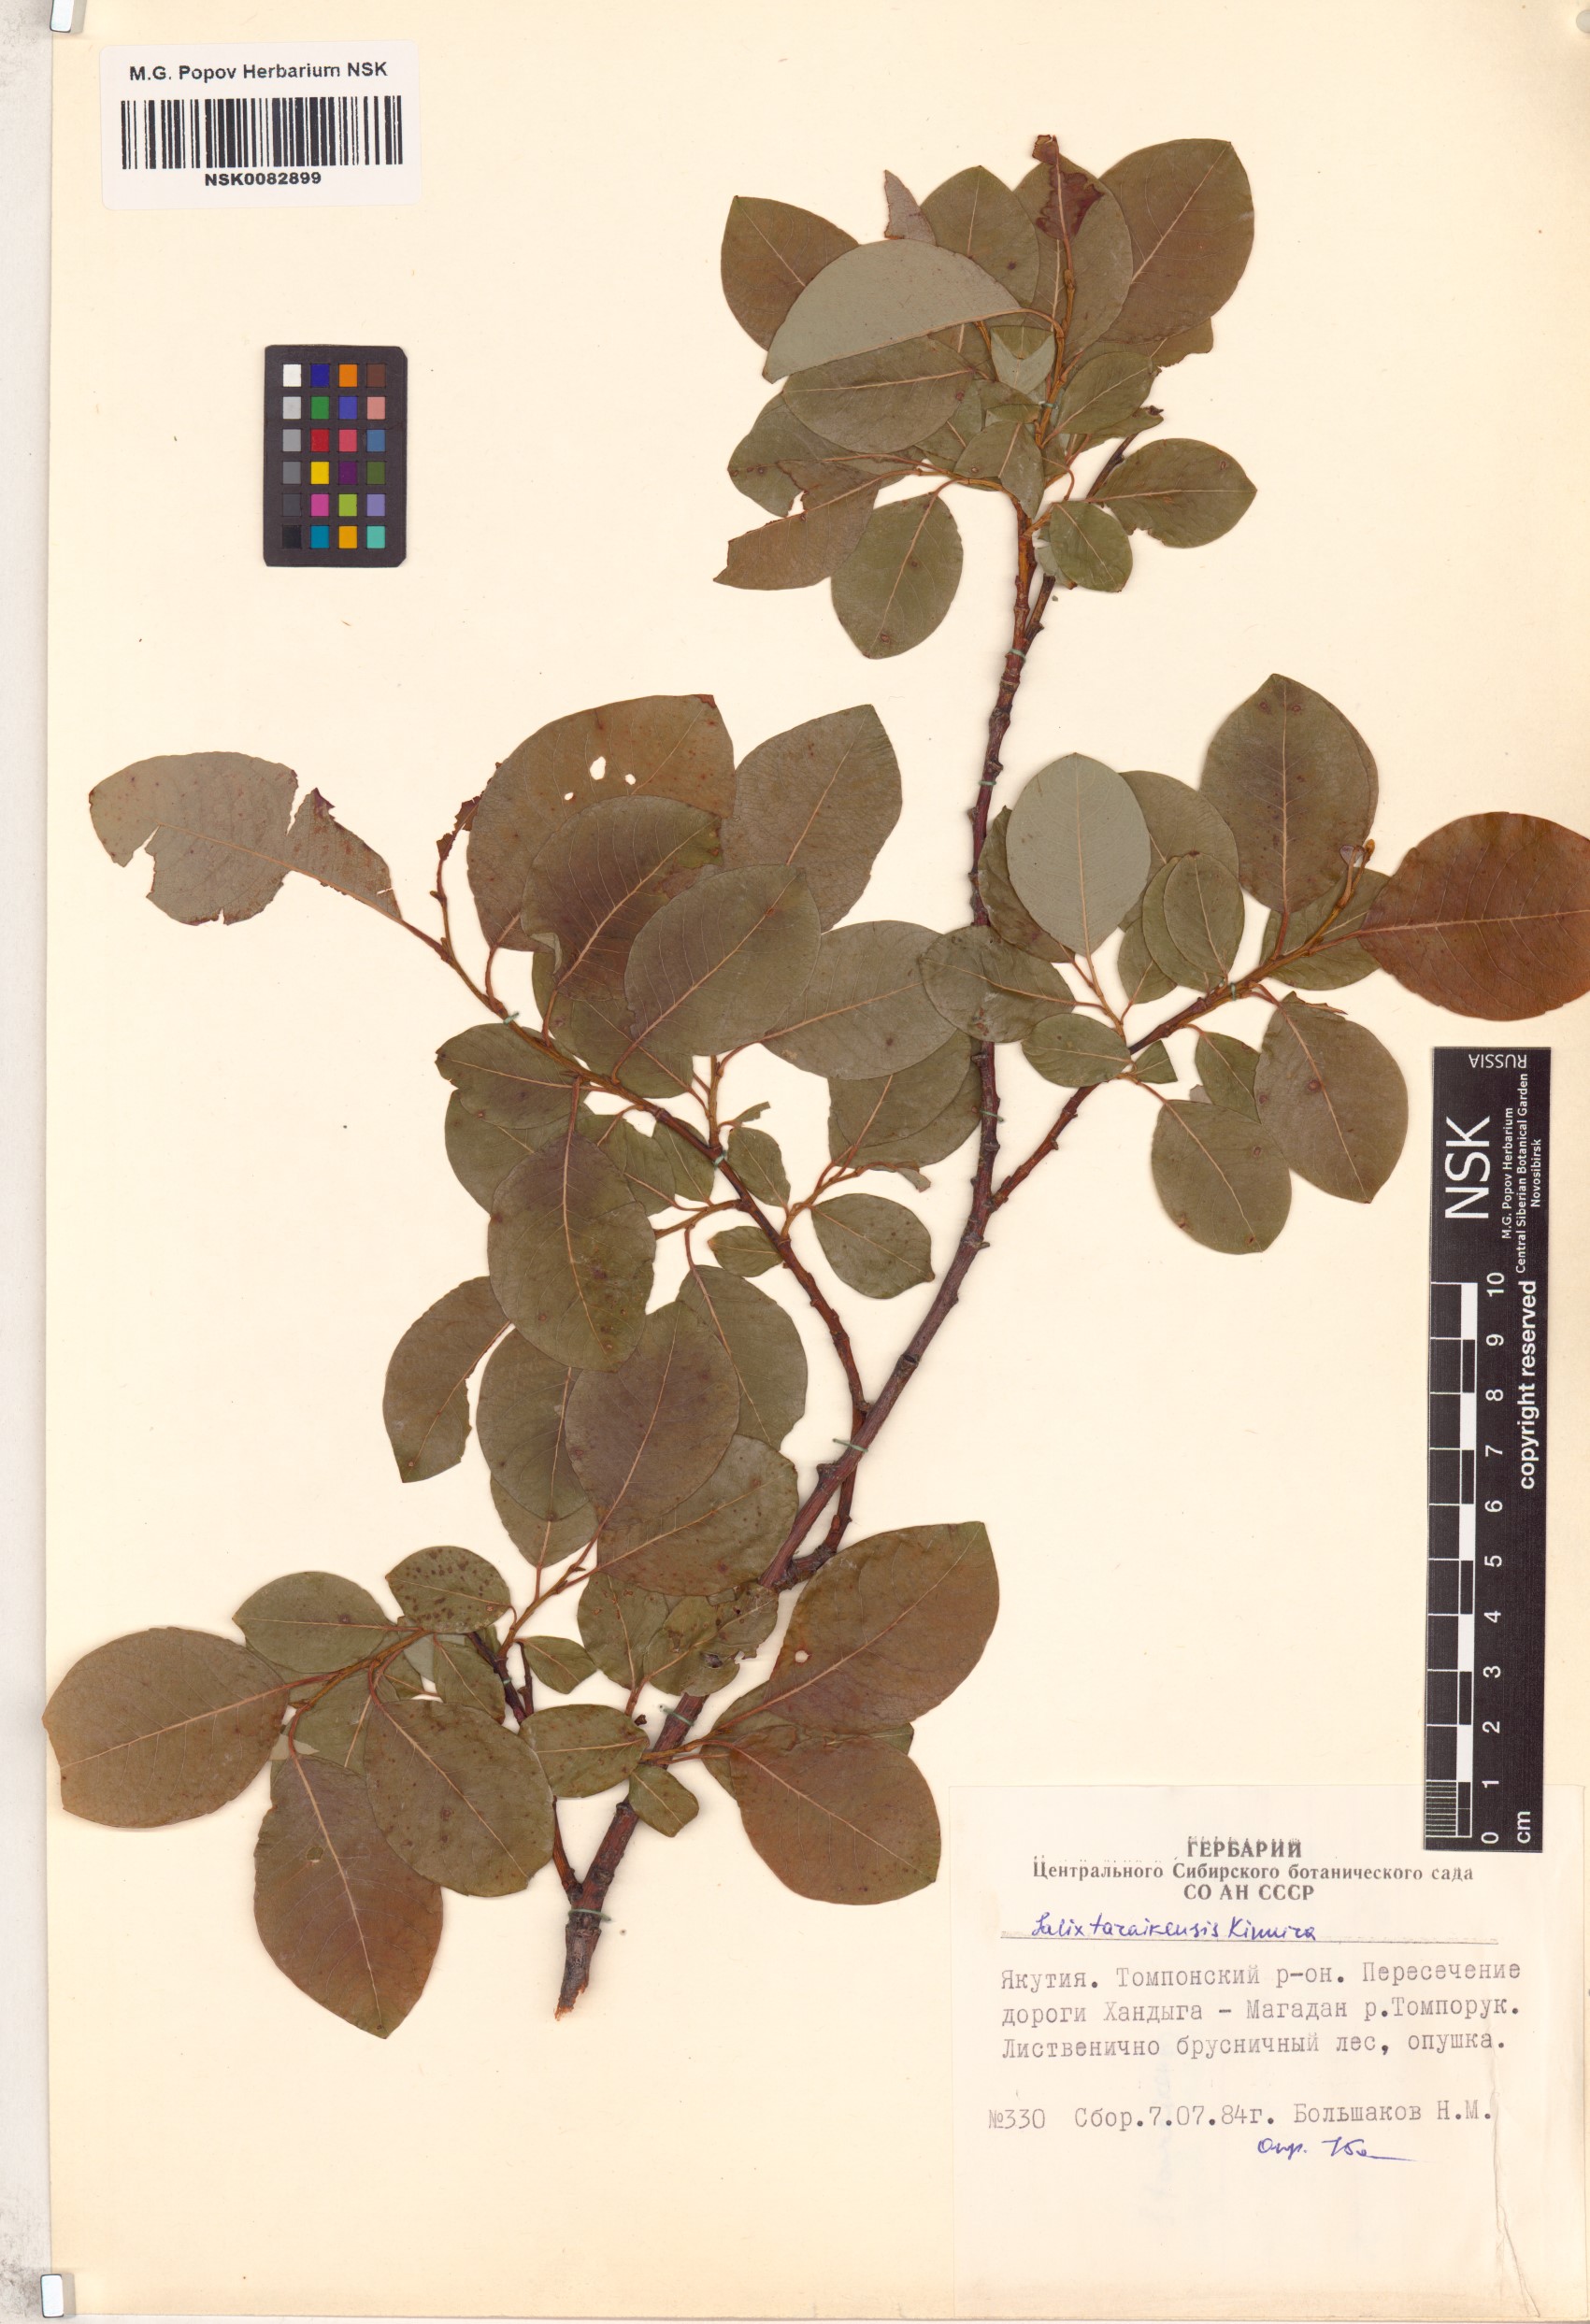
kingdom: Plantae
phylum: Tracheophyta
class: Magnoliopsida
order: Malpighiales
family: Salicaceae
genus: Salix
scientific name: Salix taraikensis
